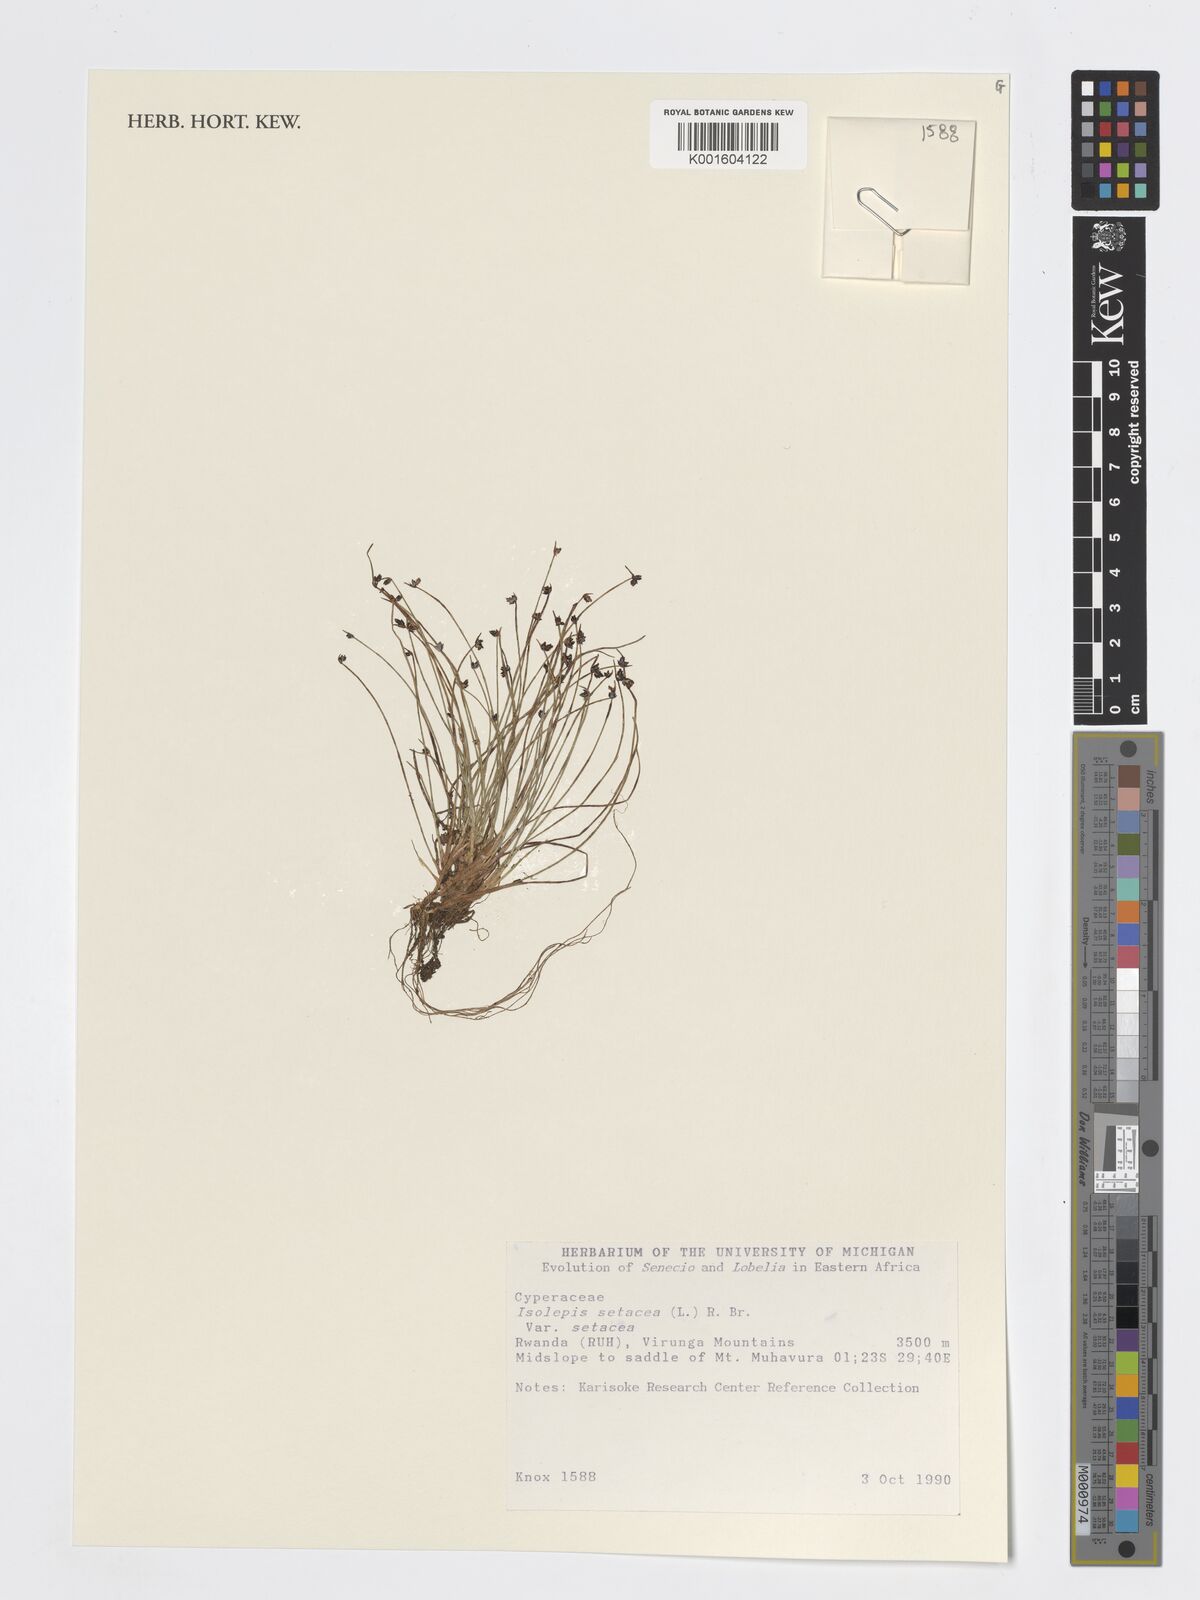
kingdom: Plantae
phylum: Tracheophyta
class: Liliopsida
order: Poales
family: Cyperaceae
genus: Isolepis
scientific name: Isolepis setacea
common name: Bristle club-rush
